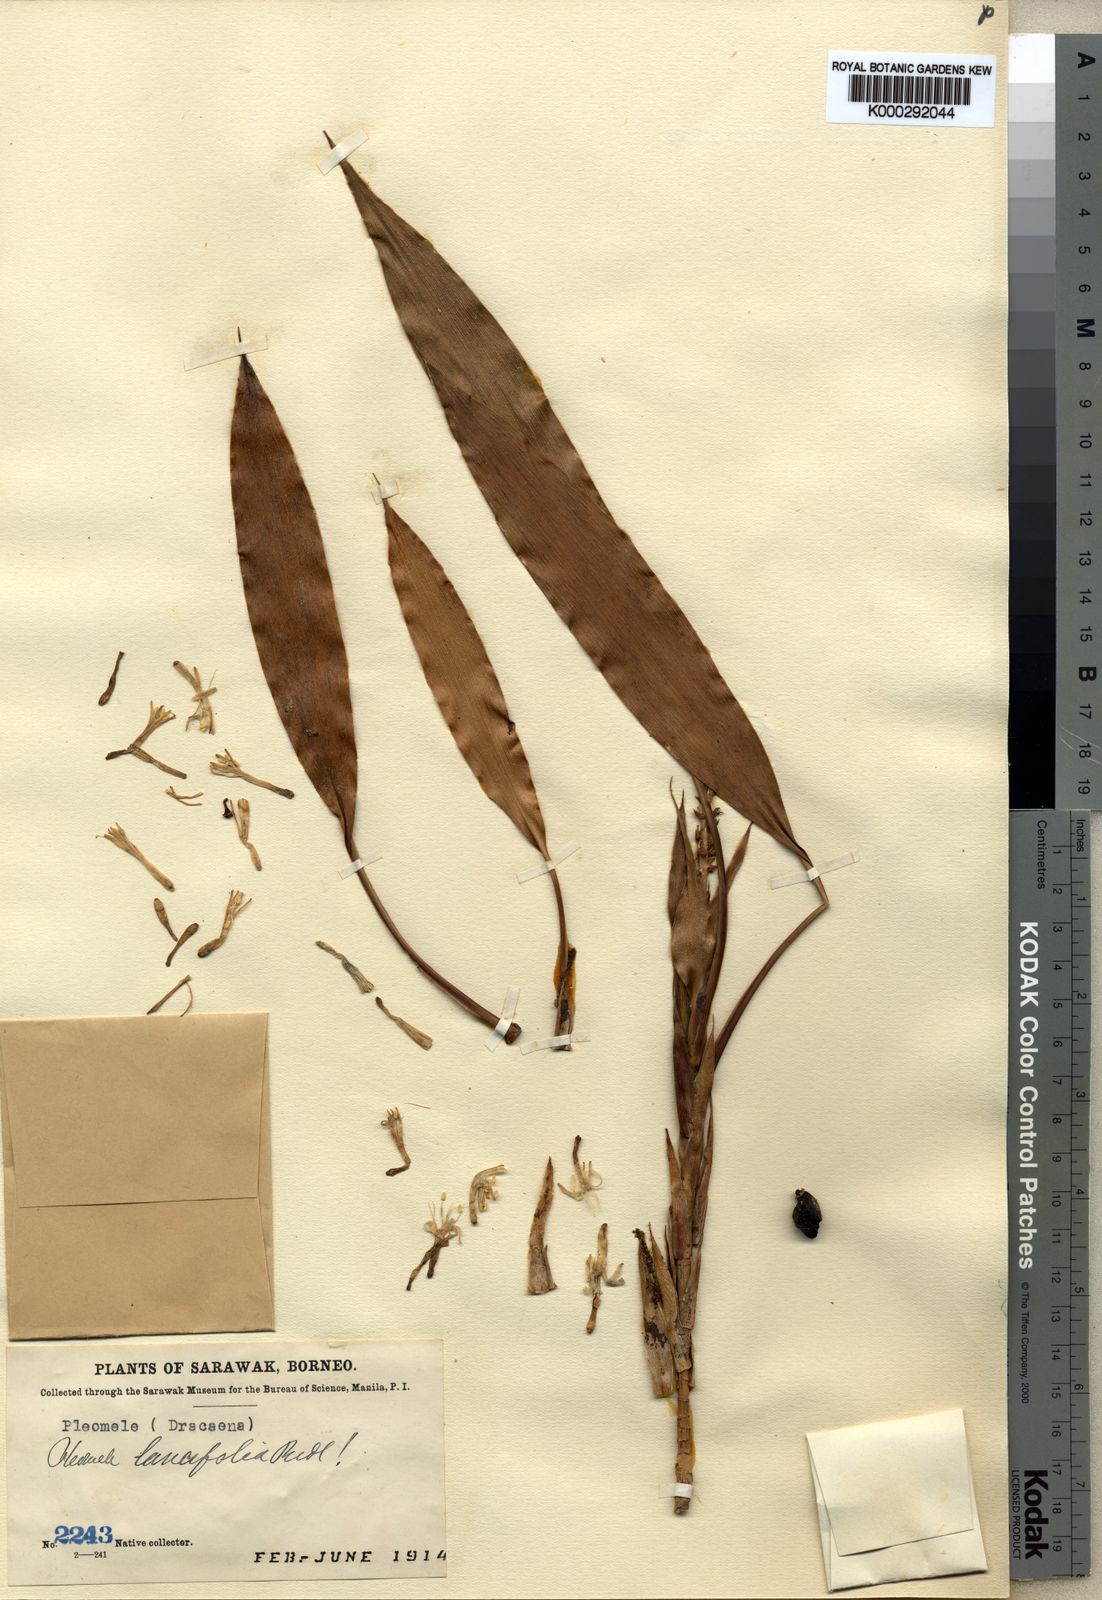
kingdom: Plantae
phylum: Tracheophyta
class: Liliopsida
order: Asparagales
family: Asparagaceae
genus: Dracaena
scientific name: Dracaena lancifolia
